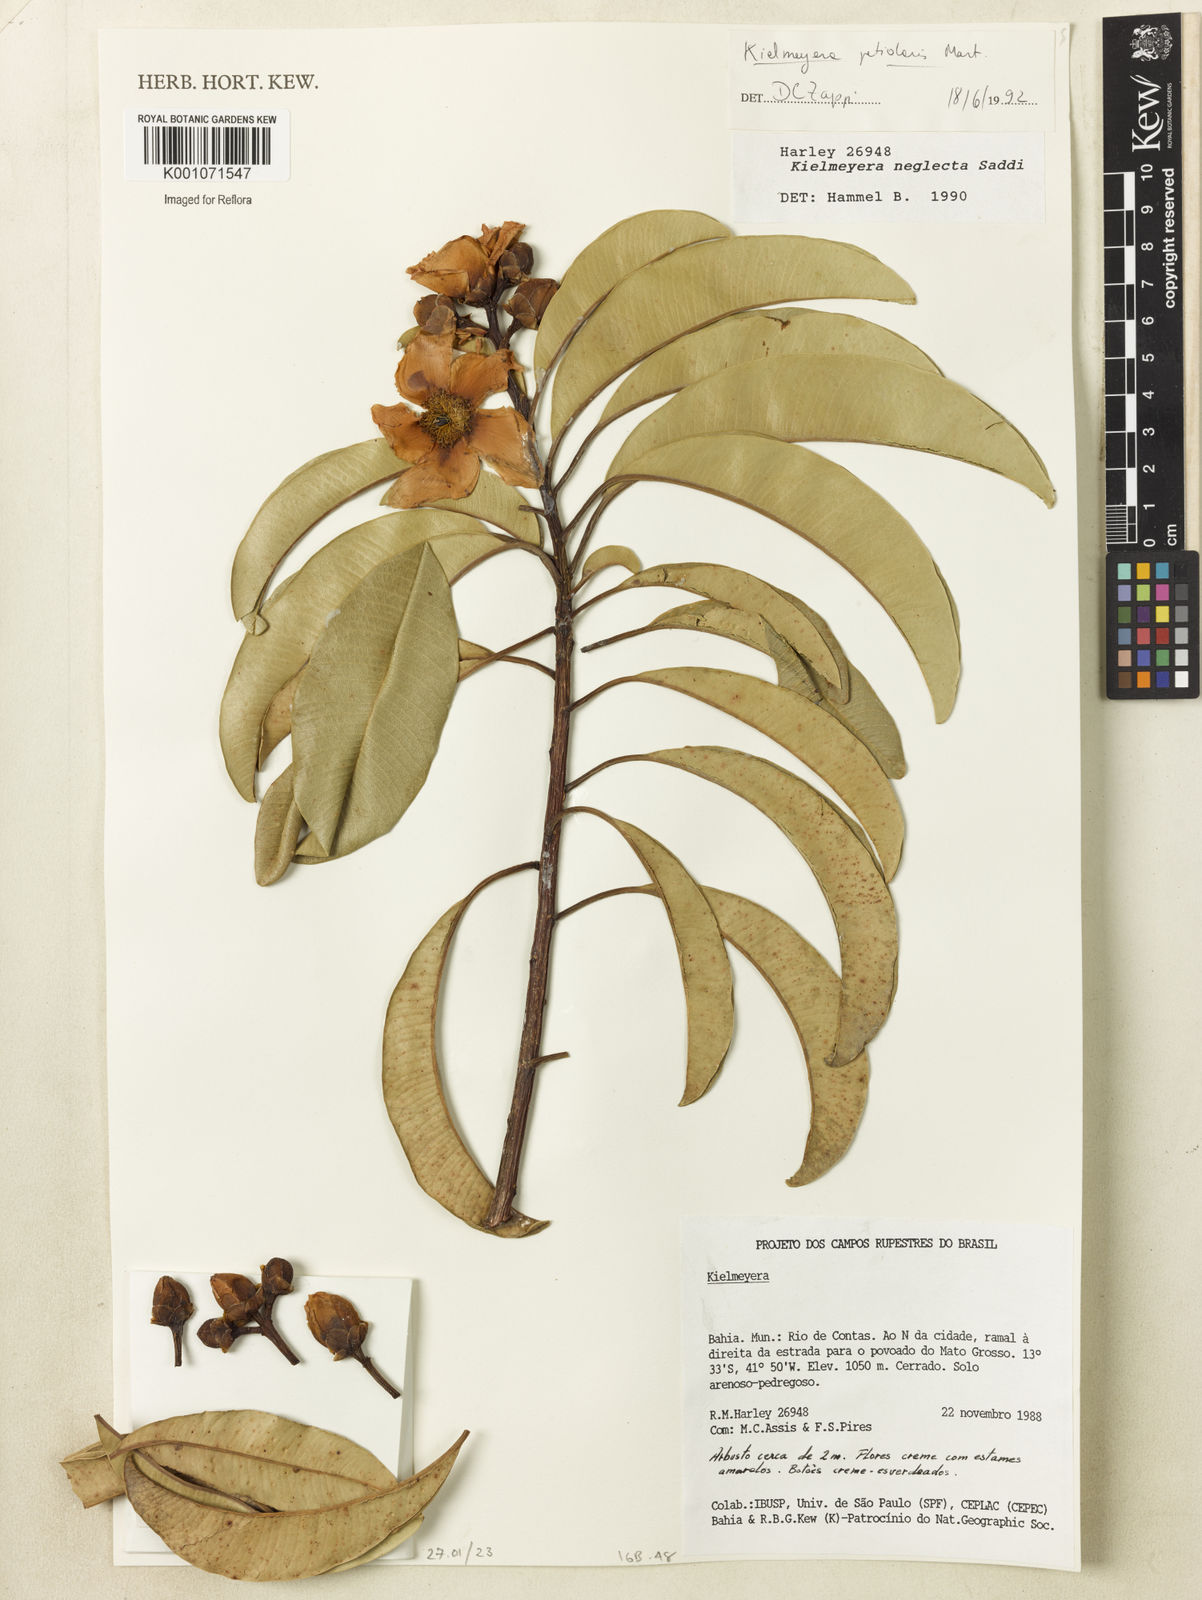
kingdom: Plantae
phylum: Tracheophyta
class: Magnoliopsida
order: Malpighiales
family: Calophyllaceae
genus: Kielmeyera
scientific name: Kielmeyera petiolaris
